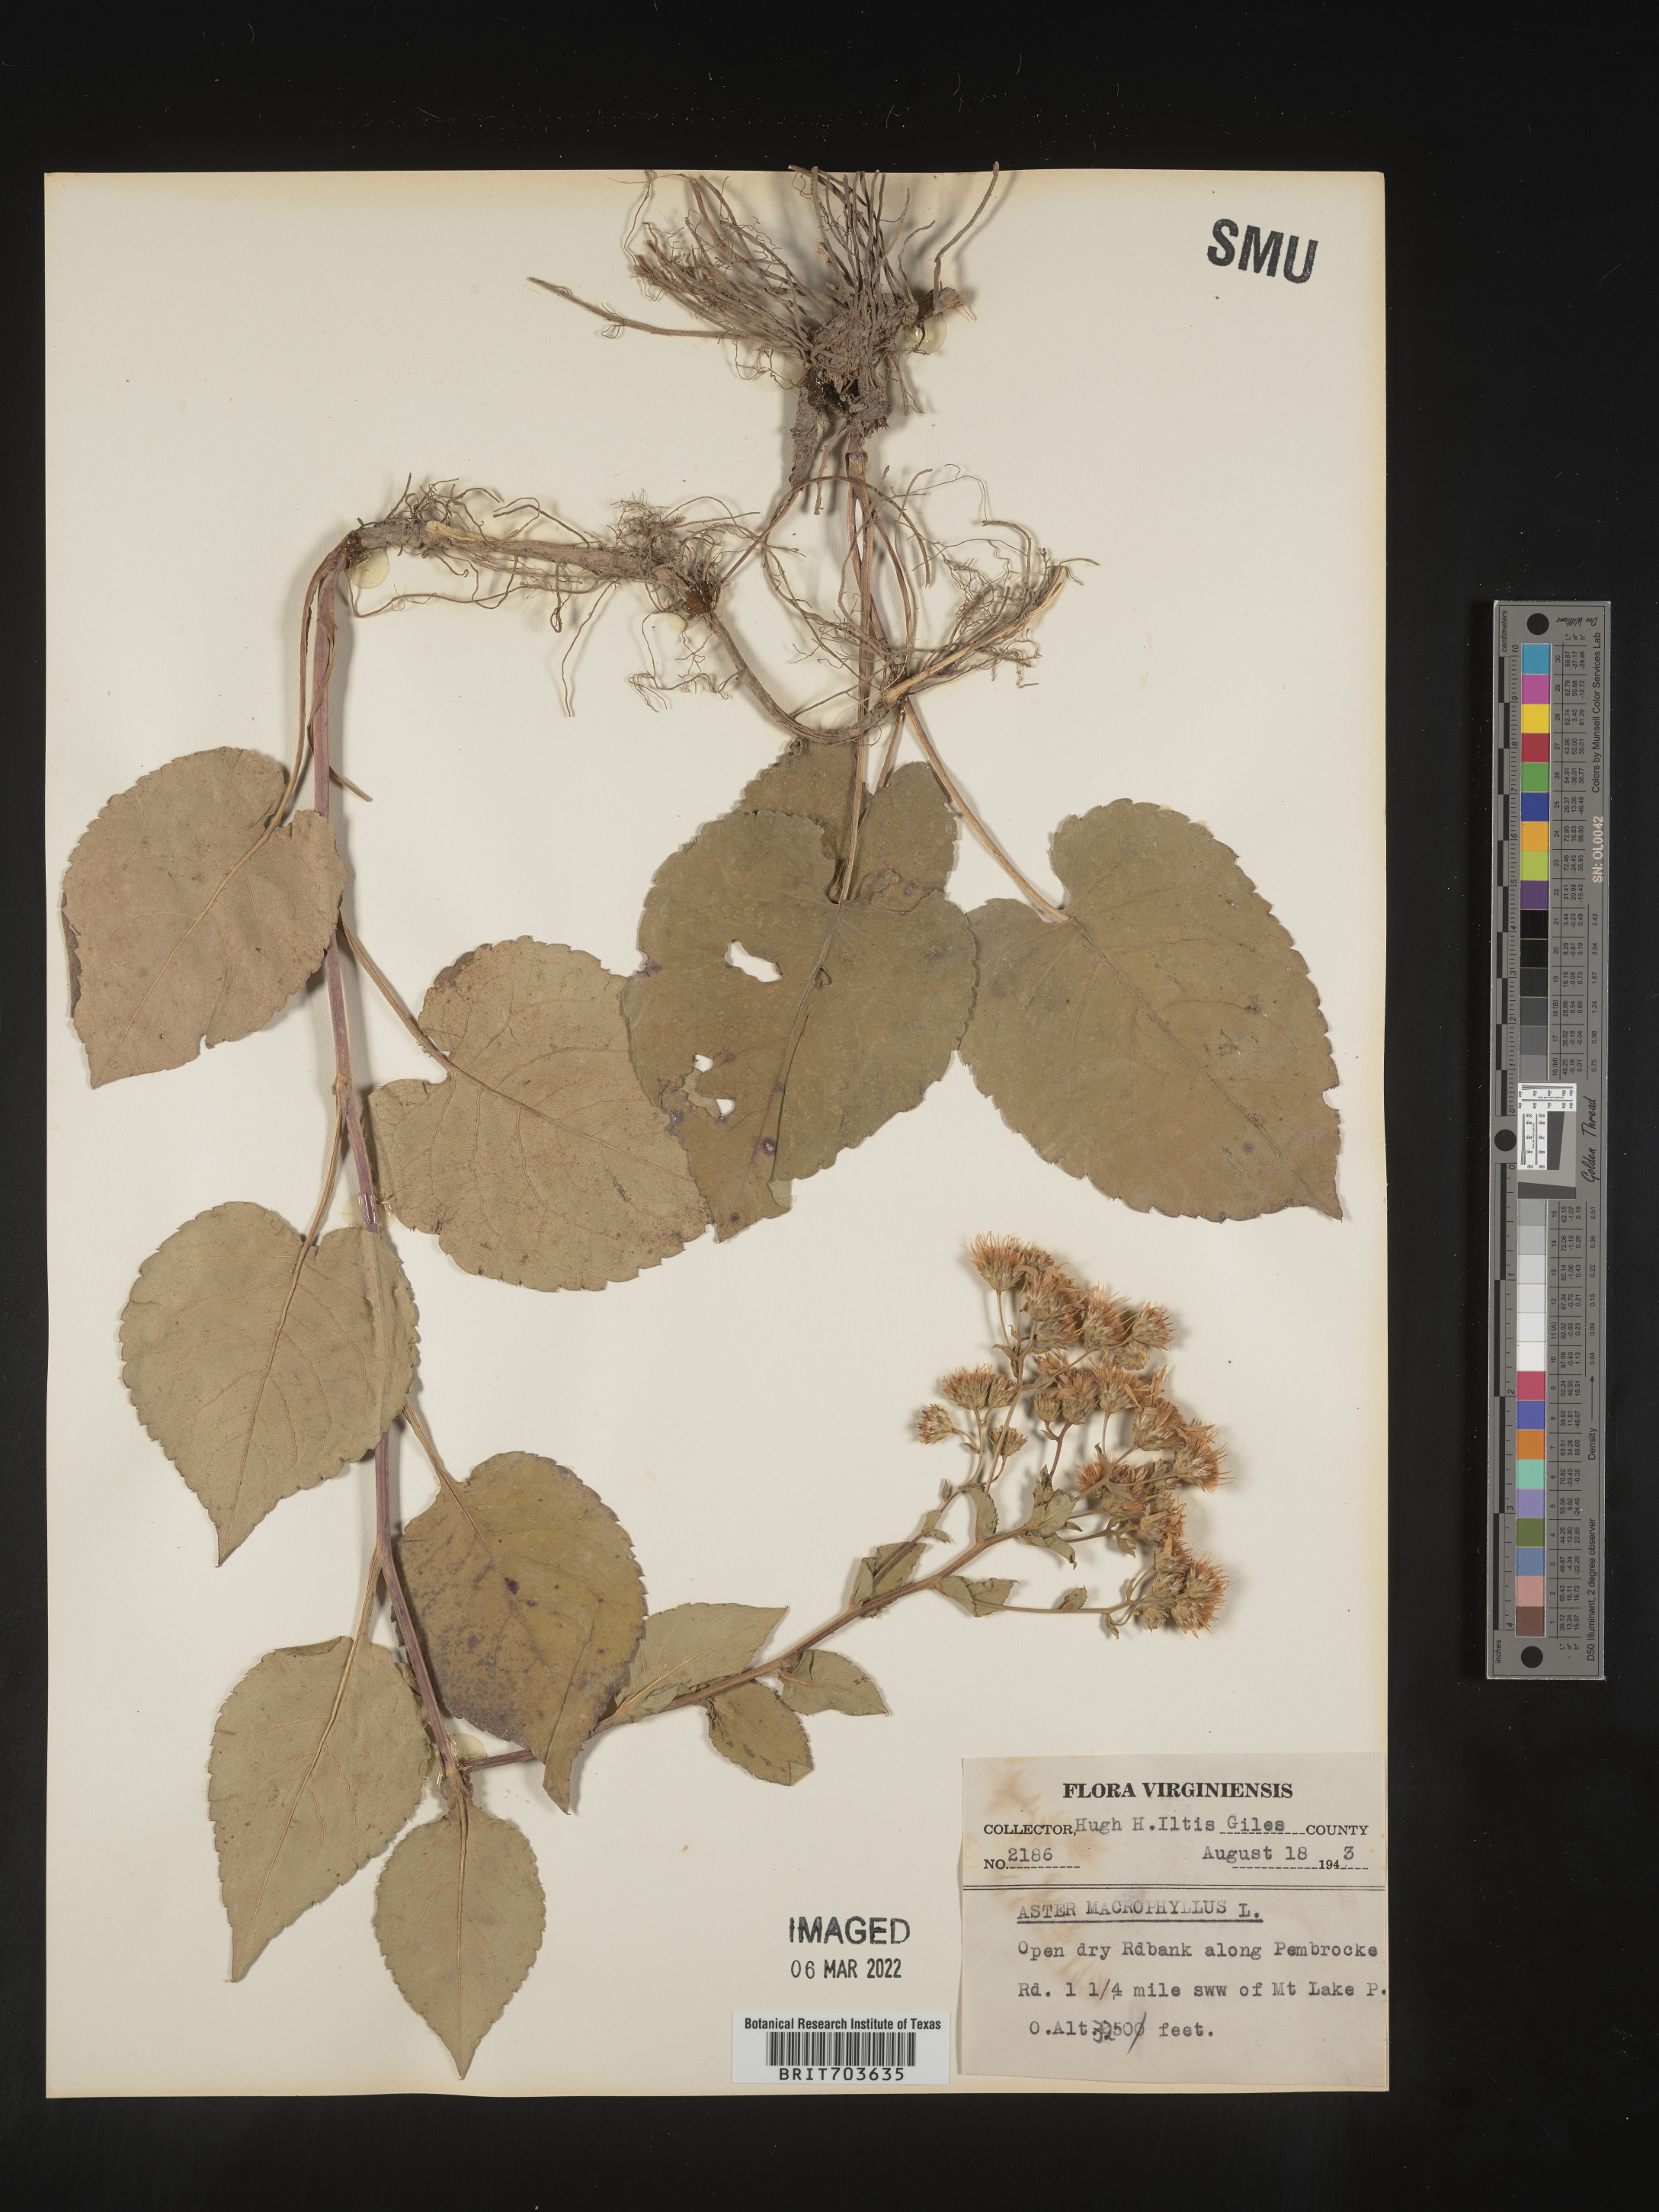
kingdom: Plantae
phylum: Tracheophyta
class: Magnoliopsida
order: Asterales
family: Asteraceae
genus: Eurybia
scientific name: Eurybia macrophylla
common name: Big-leaved aster
